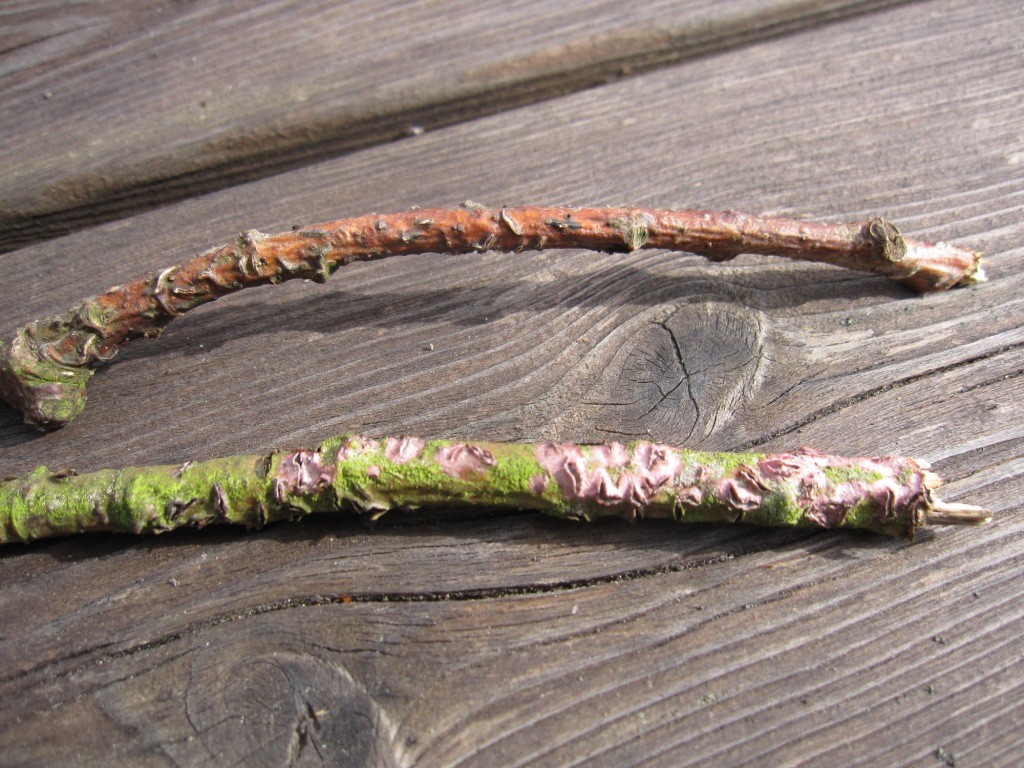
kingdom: Fungi
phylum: Ascomycota
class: Leotiomycetes
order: Rhytismatales
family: Rhytismataceae
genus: Colpoma
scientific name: Colpoma quercinum
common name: ege-sprækkeskive
